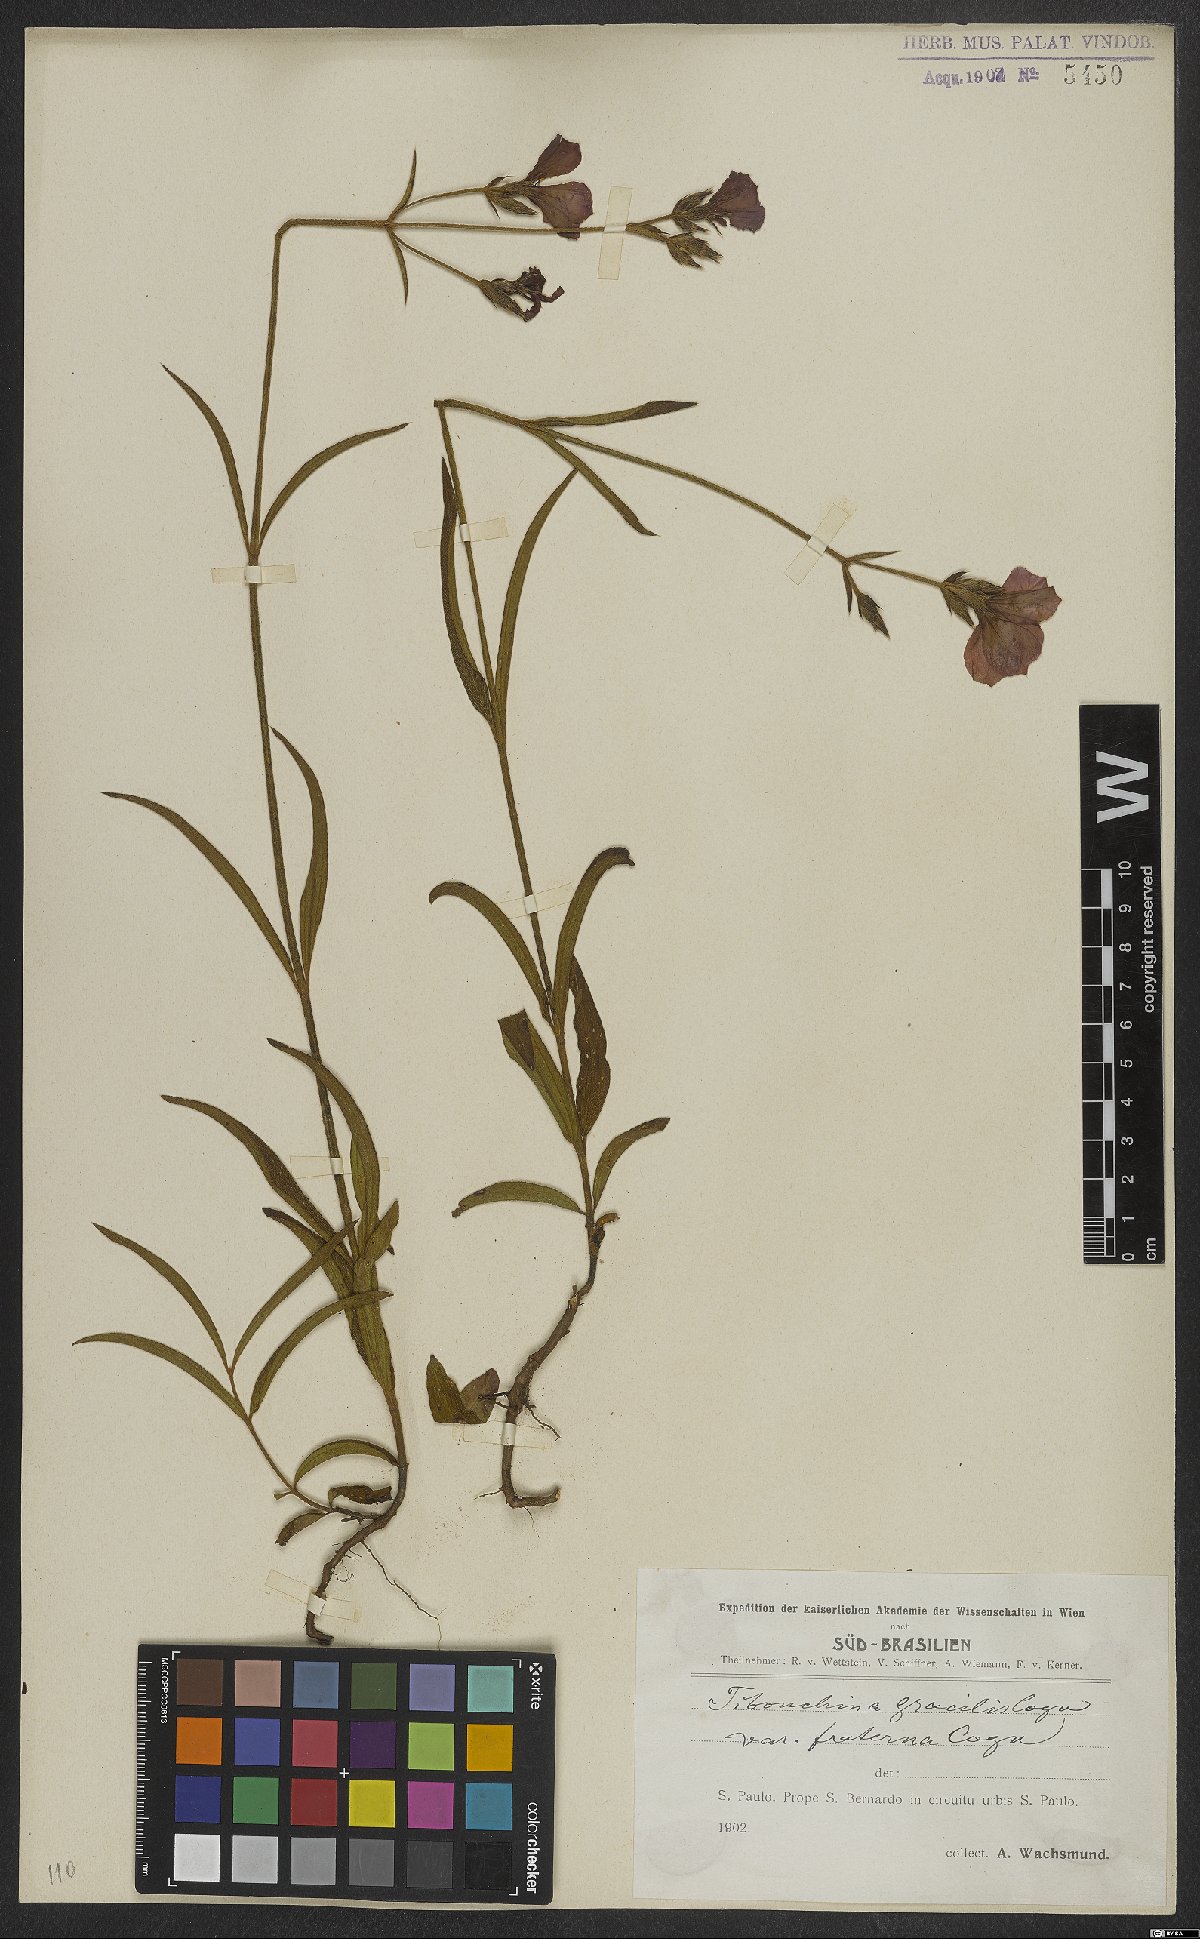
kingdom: Plantae
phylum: Tracheophyta
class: Magnoliopsida
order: Myrtales
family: Melastomataceae
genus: Chaetogastra
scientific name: Chaetogastra gracilis
